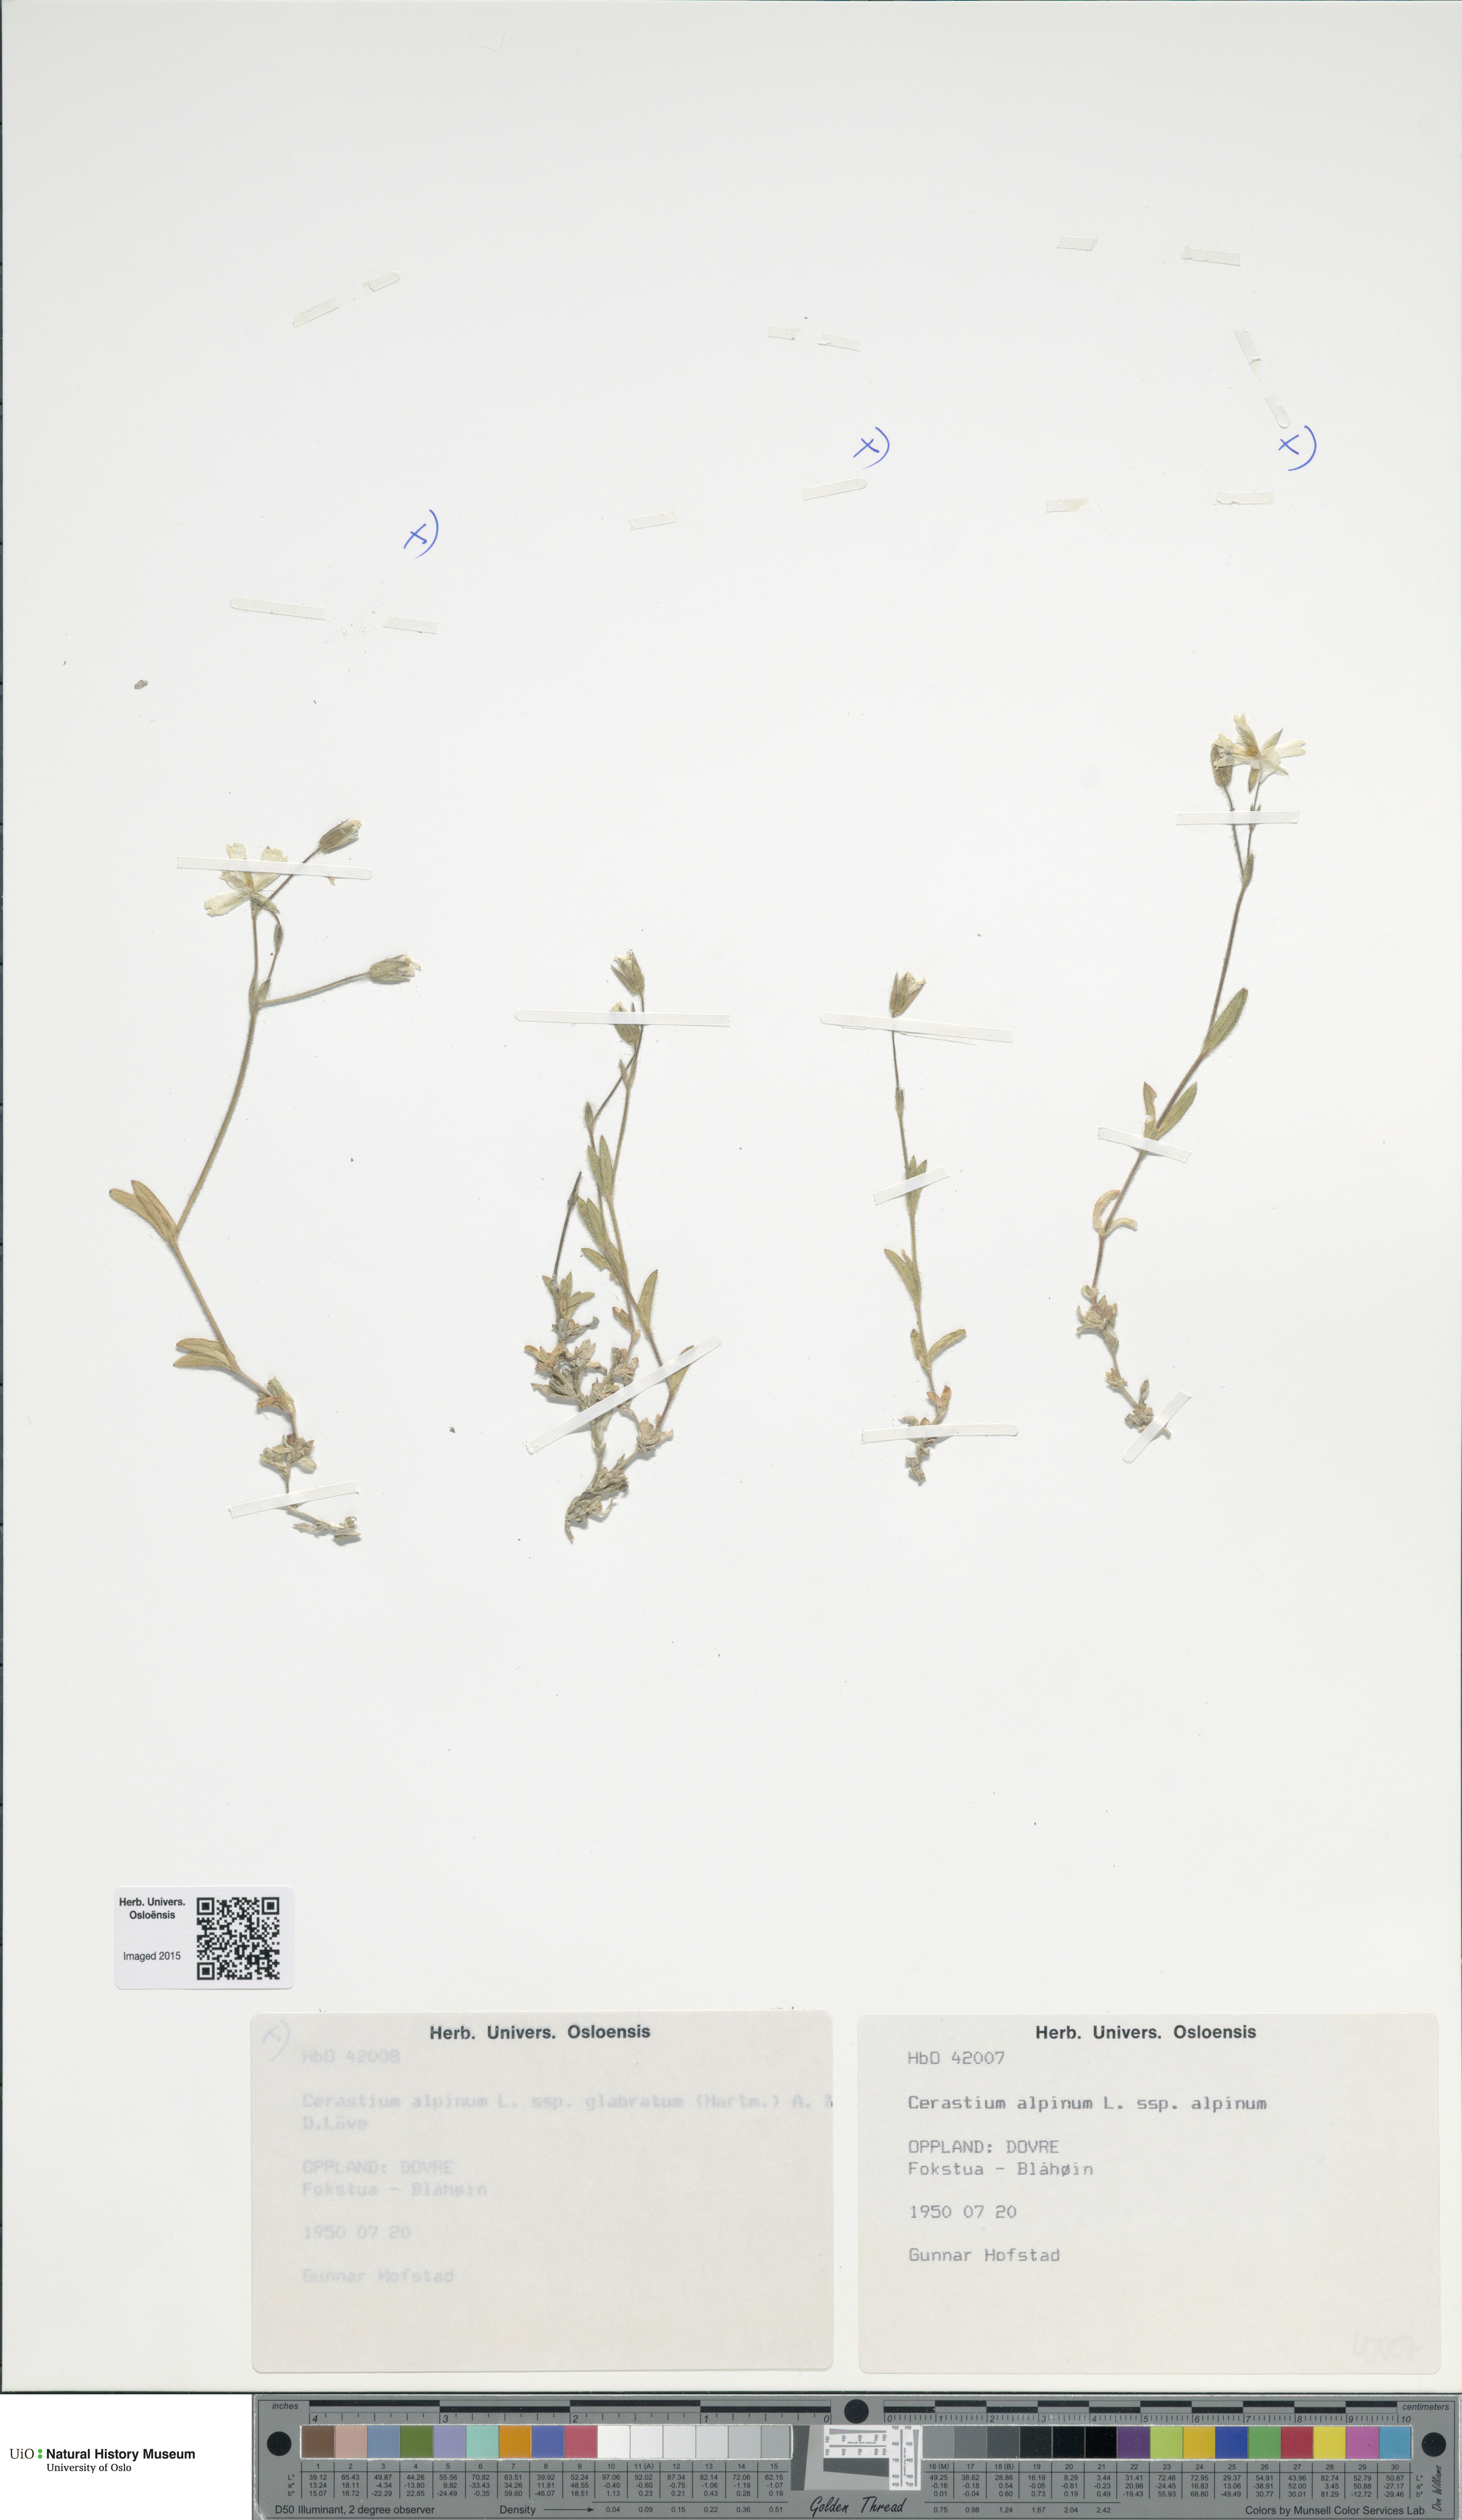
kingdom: Plantae
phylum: Tracheophyta
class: Magnoliopsida
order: Caryophyllales
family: Caryophyllaceae
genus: Cerastium
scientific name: Cerastium alpinum
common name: Alpine mouse-ear
